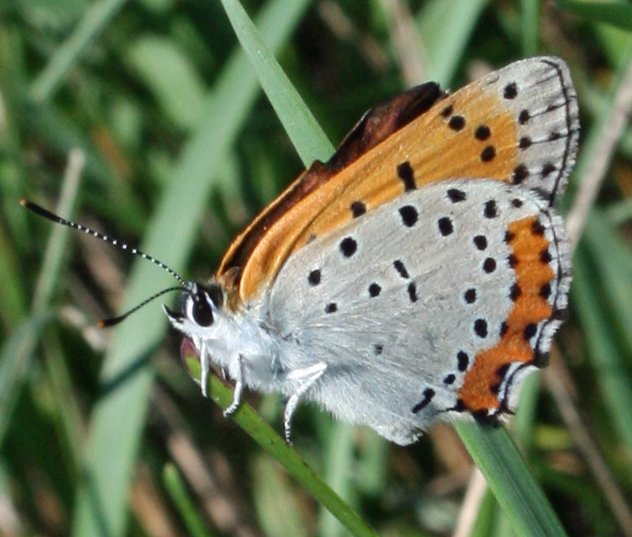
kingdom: Animalia
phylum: Arthropoda
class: Insecta
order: Lepidoptera
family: Sesiidae
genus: Sesia
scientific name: Sesia Lycaena hyllus
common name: Bronze Copper
